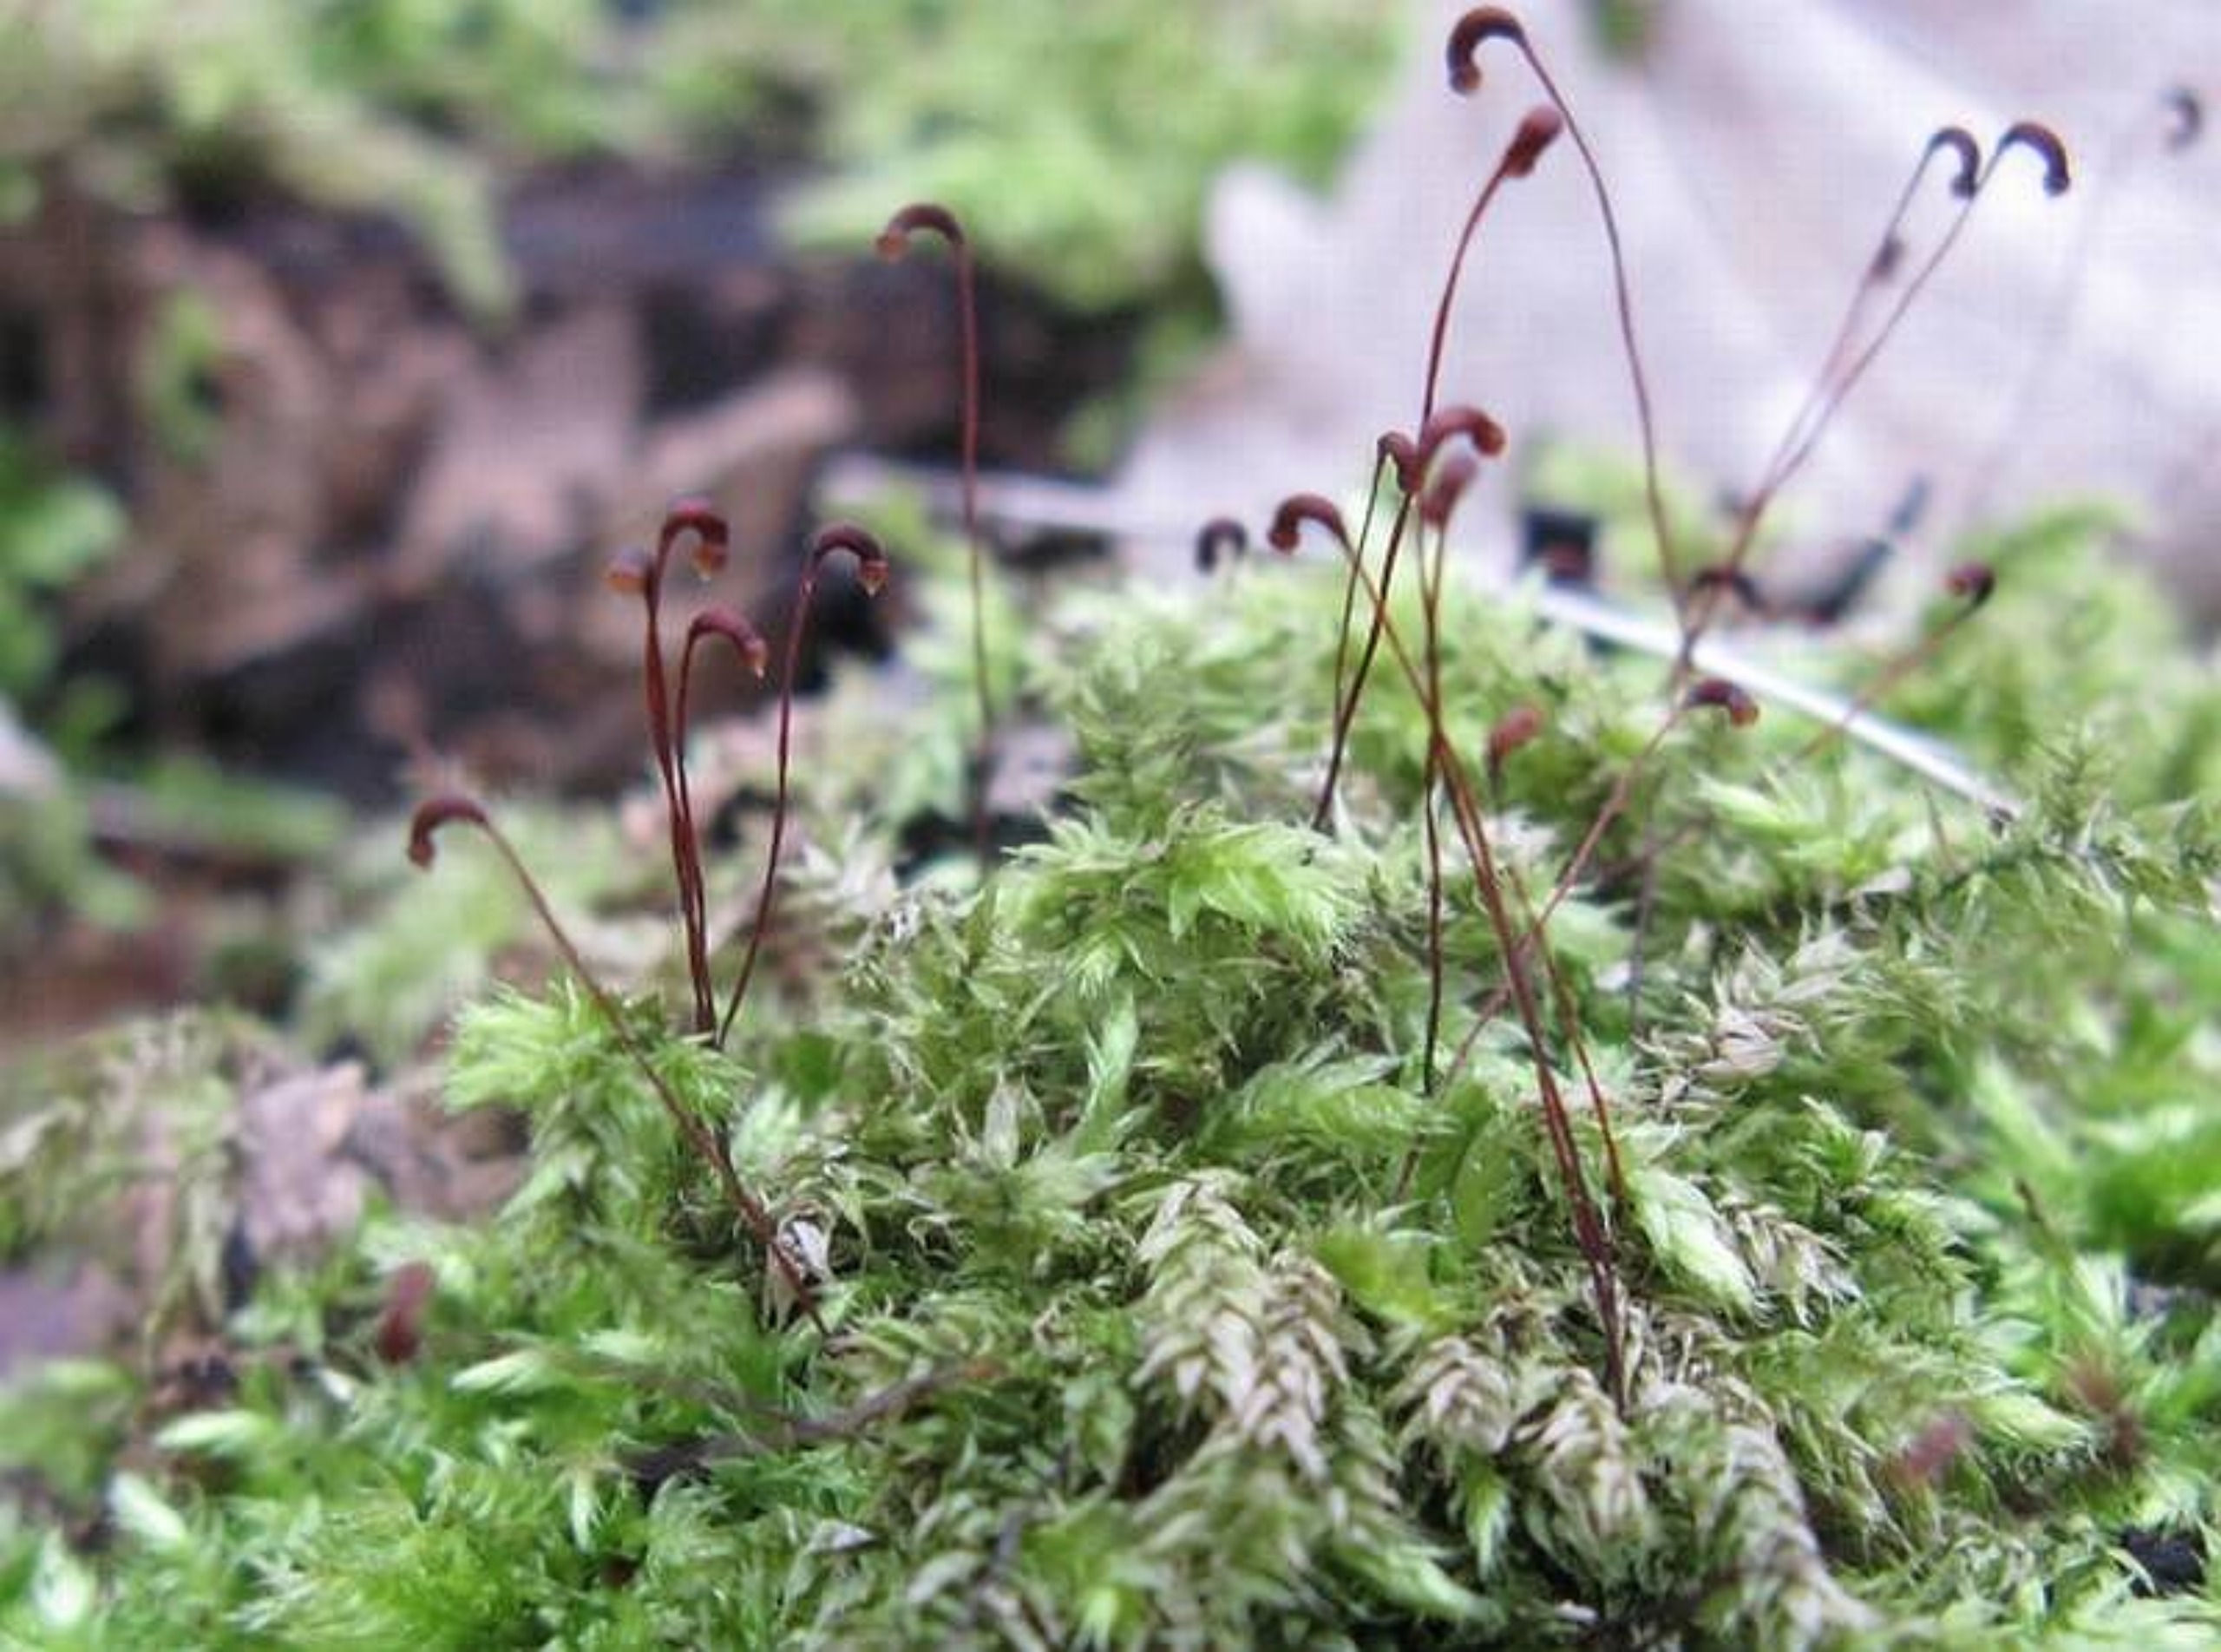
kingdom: Plantae
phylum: Bryophyta
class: Bryopsida
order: Hypnales
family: Brachytheciaceae
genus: Brachythecium
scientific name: Brachythecium rutabulum
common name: Almindelig kortkapsel
